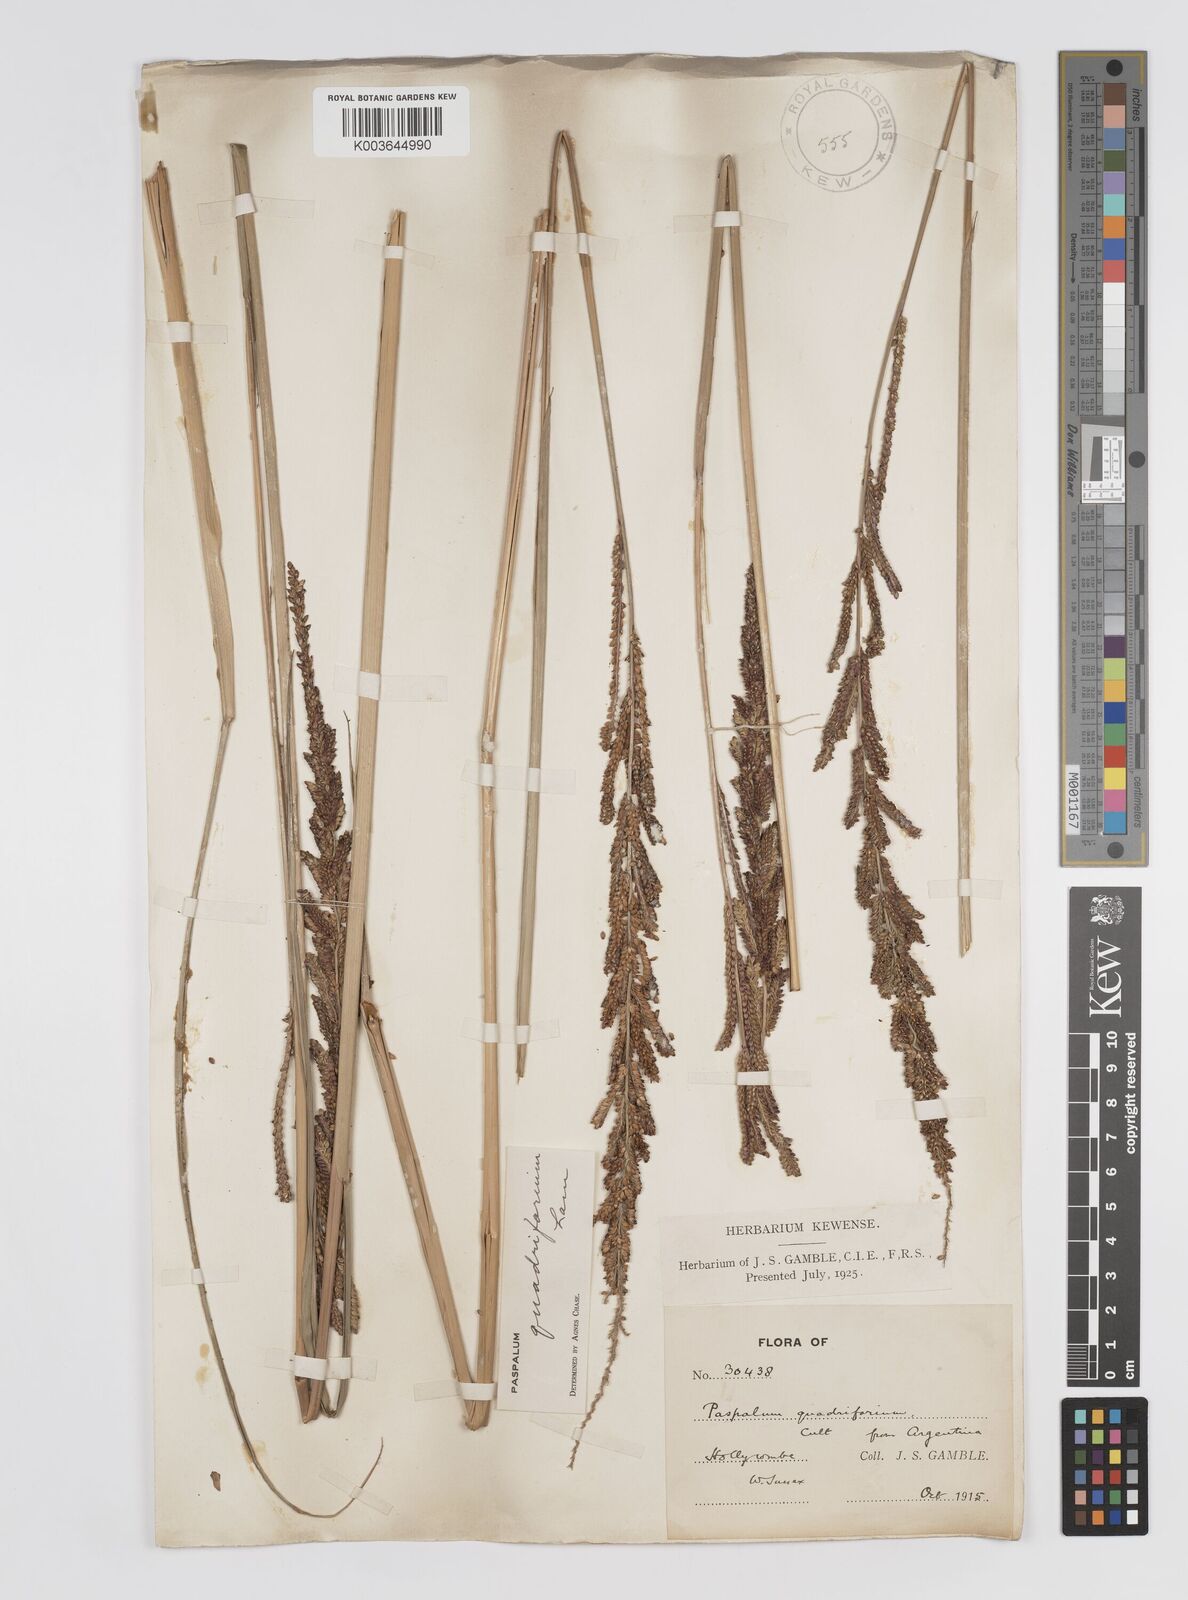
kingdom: Plantae
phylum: Tracheophyta
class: Liliopsida
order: Poales
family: Poaceae
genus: Paspalum
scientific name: Paspalum quadrifarium
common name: Tussock paspalum
